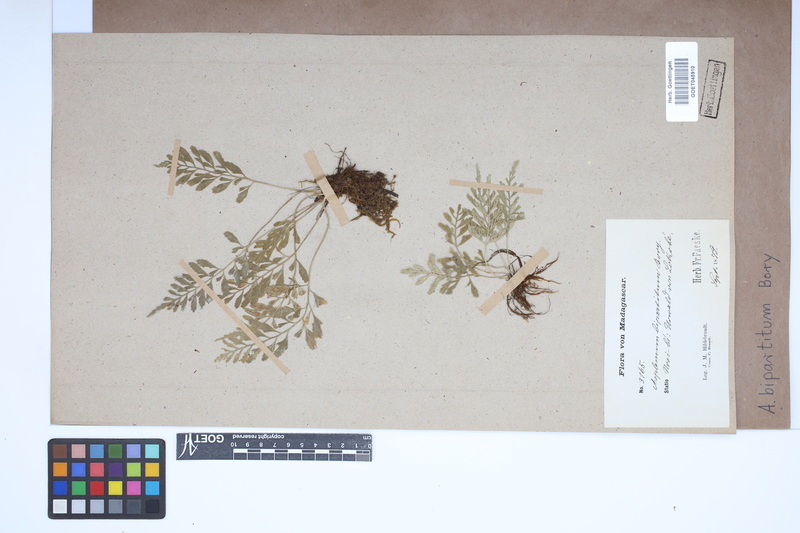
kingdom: Plantae
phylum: Tracheophyta
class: Polypodiopsida
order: Polypodiales
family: Aspleniaceae
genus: Asplenium
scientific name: Asplenium bipartitum
